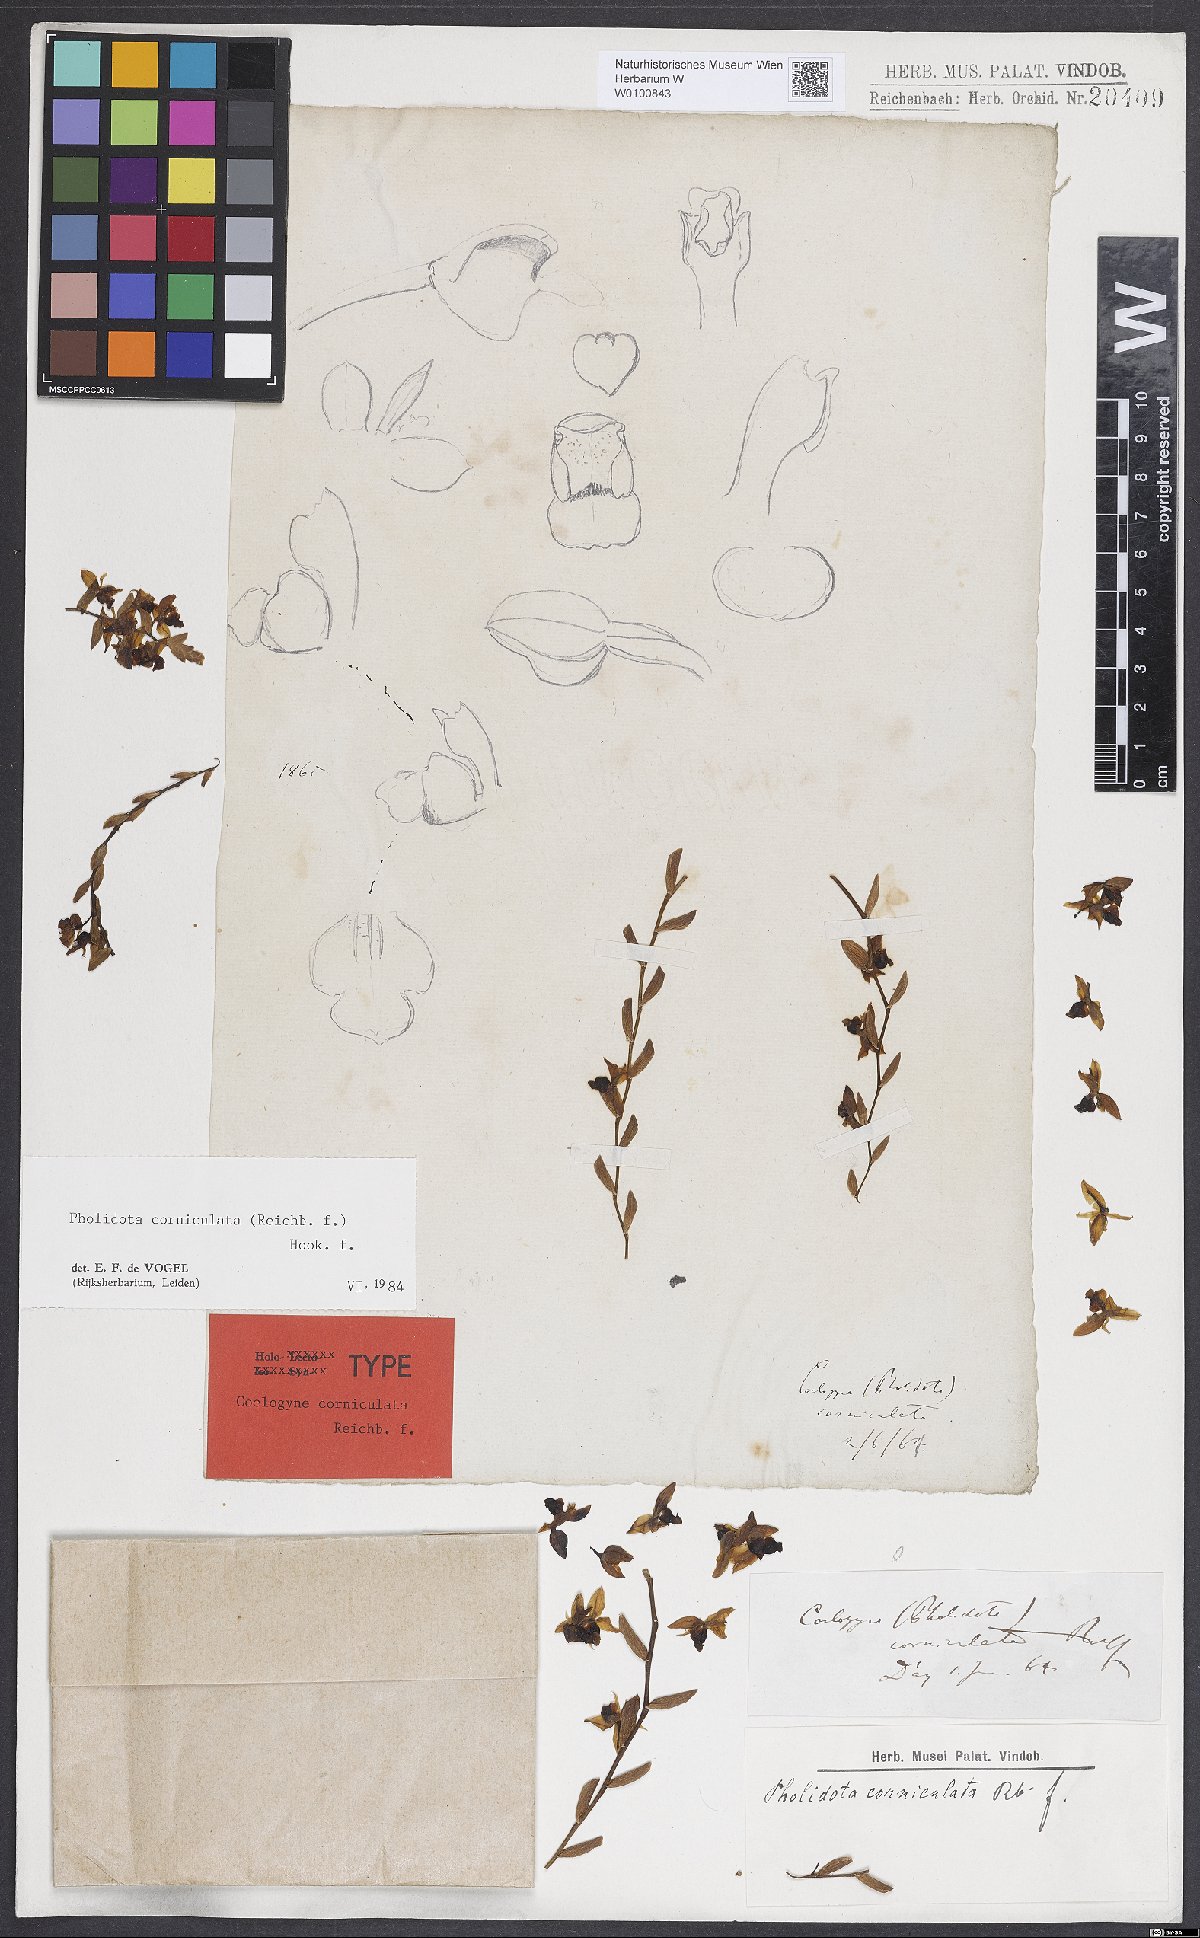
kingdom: Plantae
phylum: Tracheophyta
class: Liliopsida
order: Asparagales
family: Orchidaceae
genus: Coelogyne
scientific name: Coelogyne chinensis
